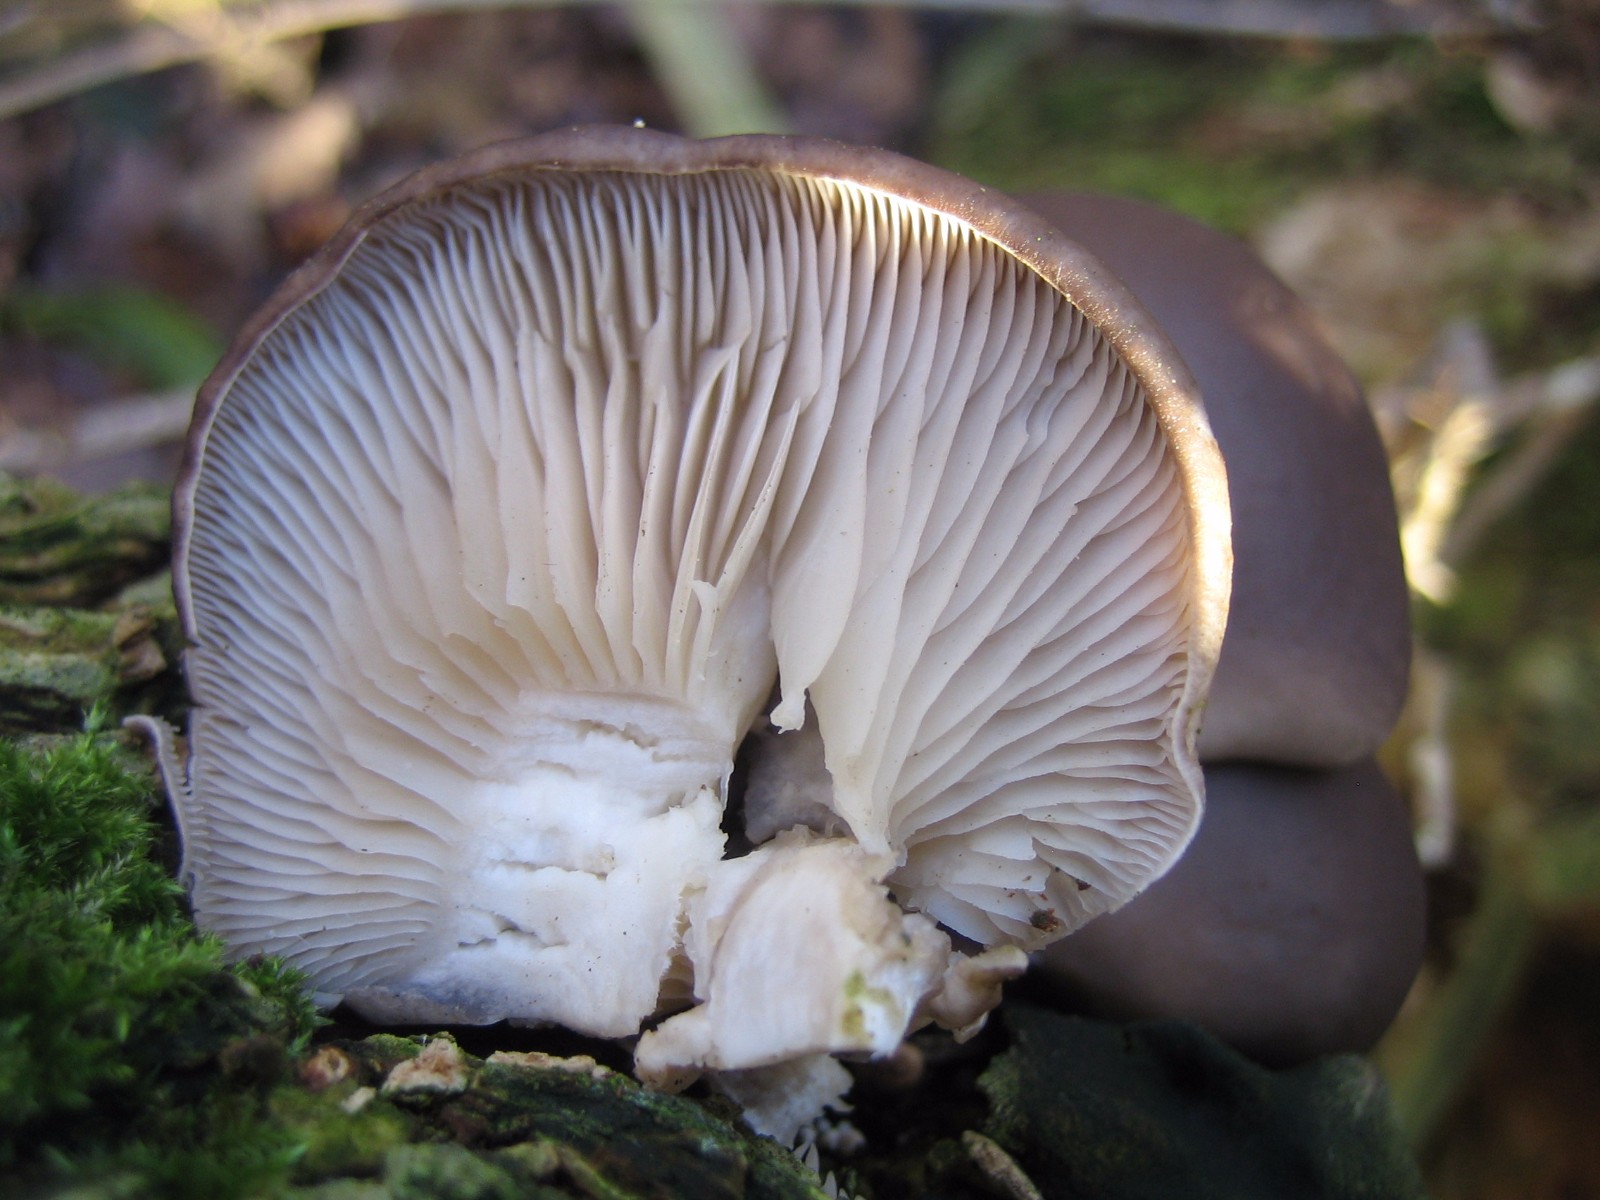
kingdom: Fungi
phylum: Basidiomycota
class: Agaricomycetes
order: Agaricales
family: Pleurotaceae
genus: Pleurotus
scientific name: Pleurotus ostreatus
